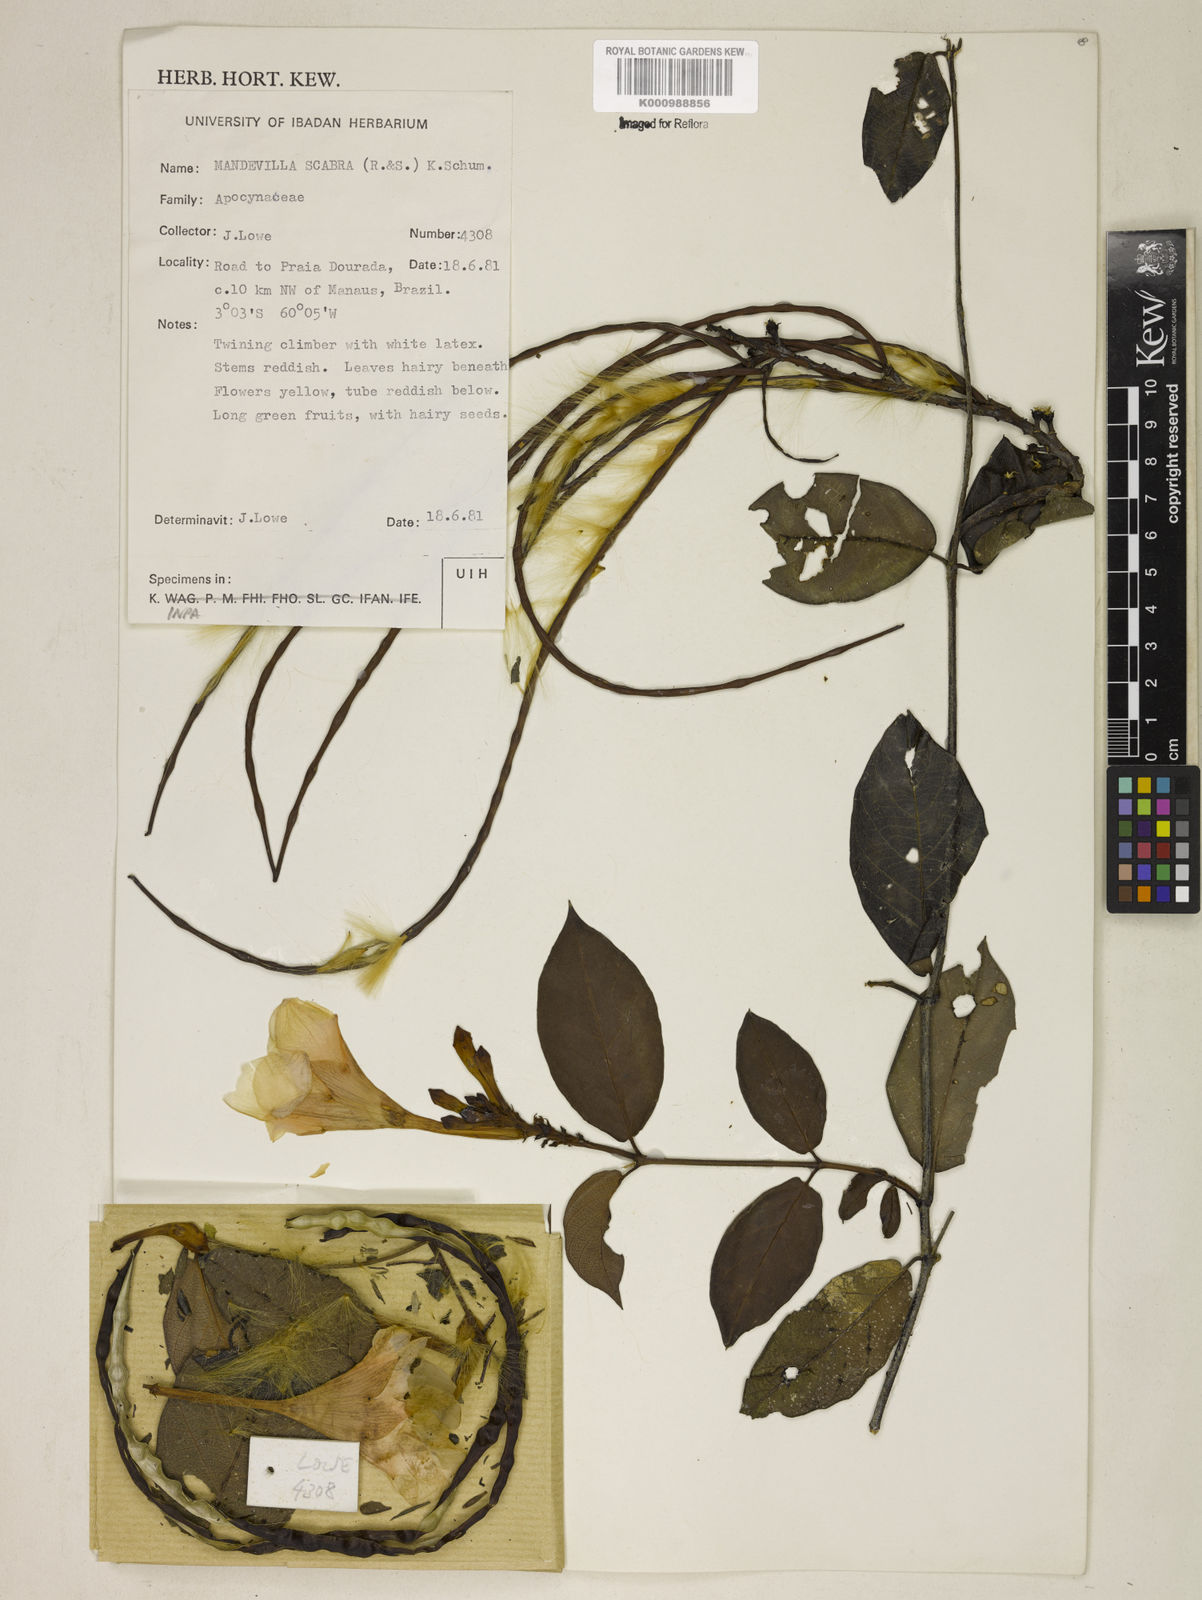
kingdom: Plantae
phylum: Tracheophyta
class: Magnoliopsida
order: Gentianales
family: Apocynaceae
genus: Mandevilla
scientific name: Mandevilla scabra
